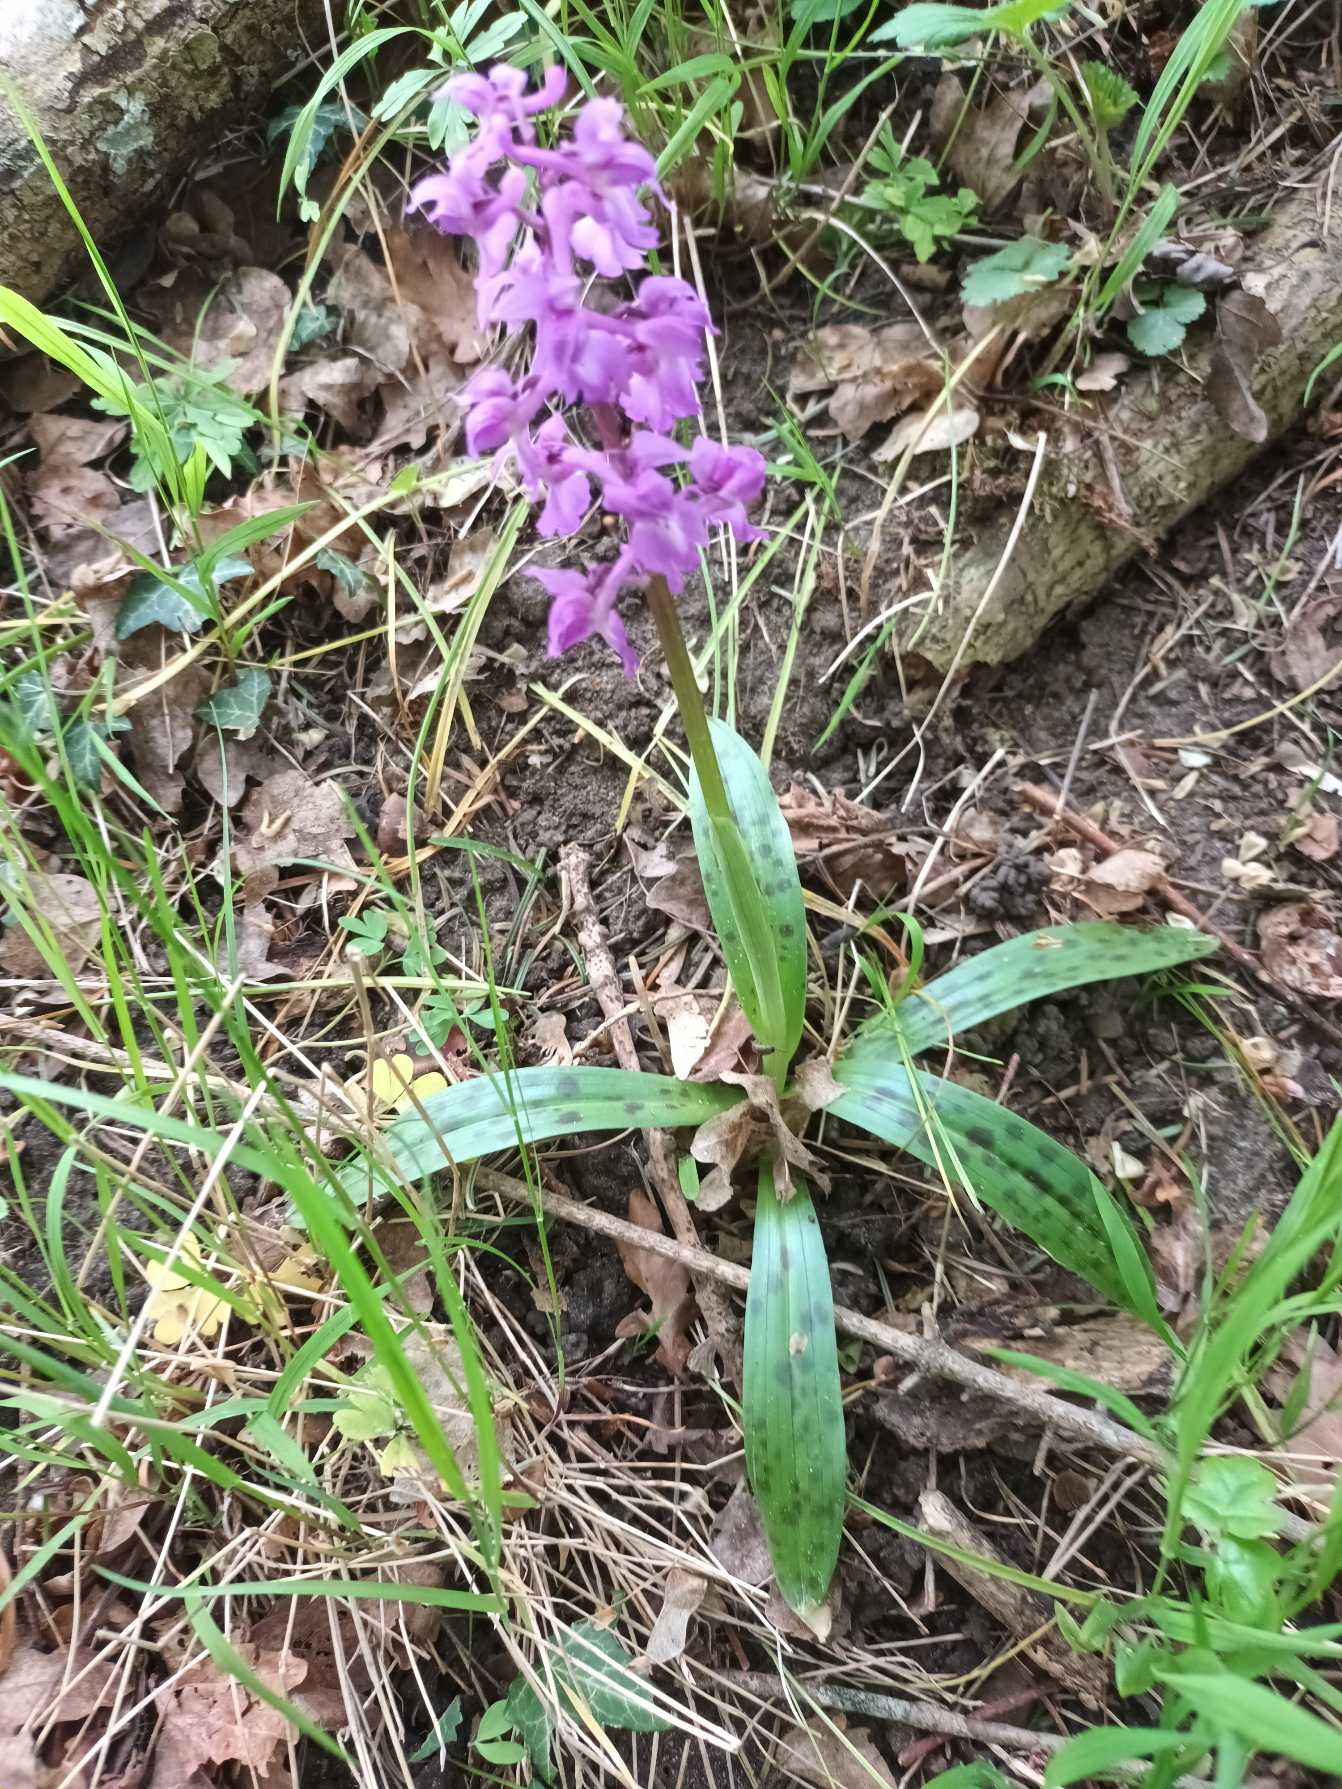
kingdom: Plantae
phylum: Tracheophyta
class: Liliopsida
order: Asparagales
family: Orchidaceae
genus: Orchis
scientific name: Orchis mascula
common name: Tyndakset gøgeurt
